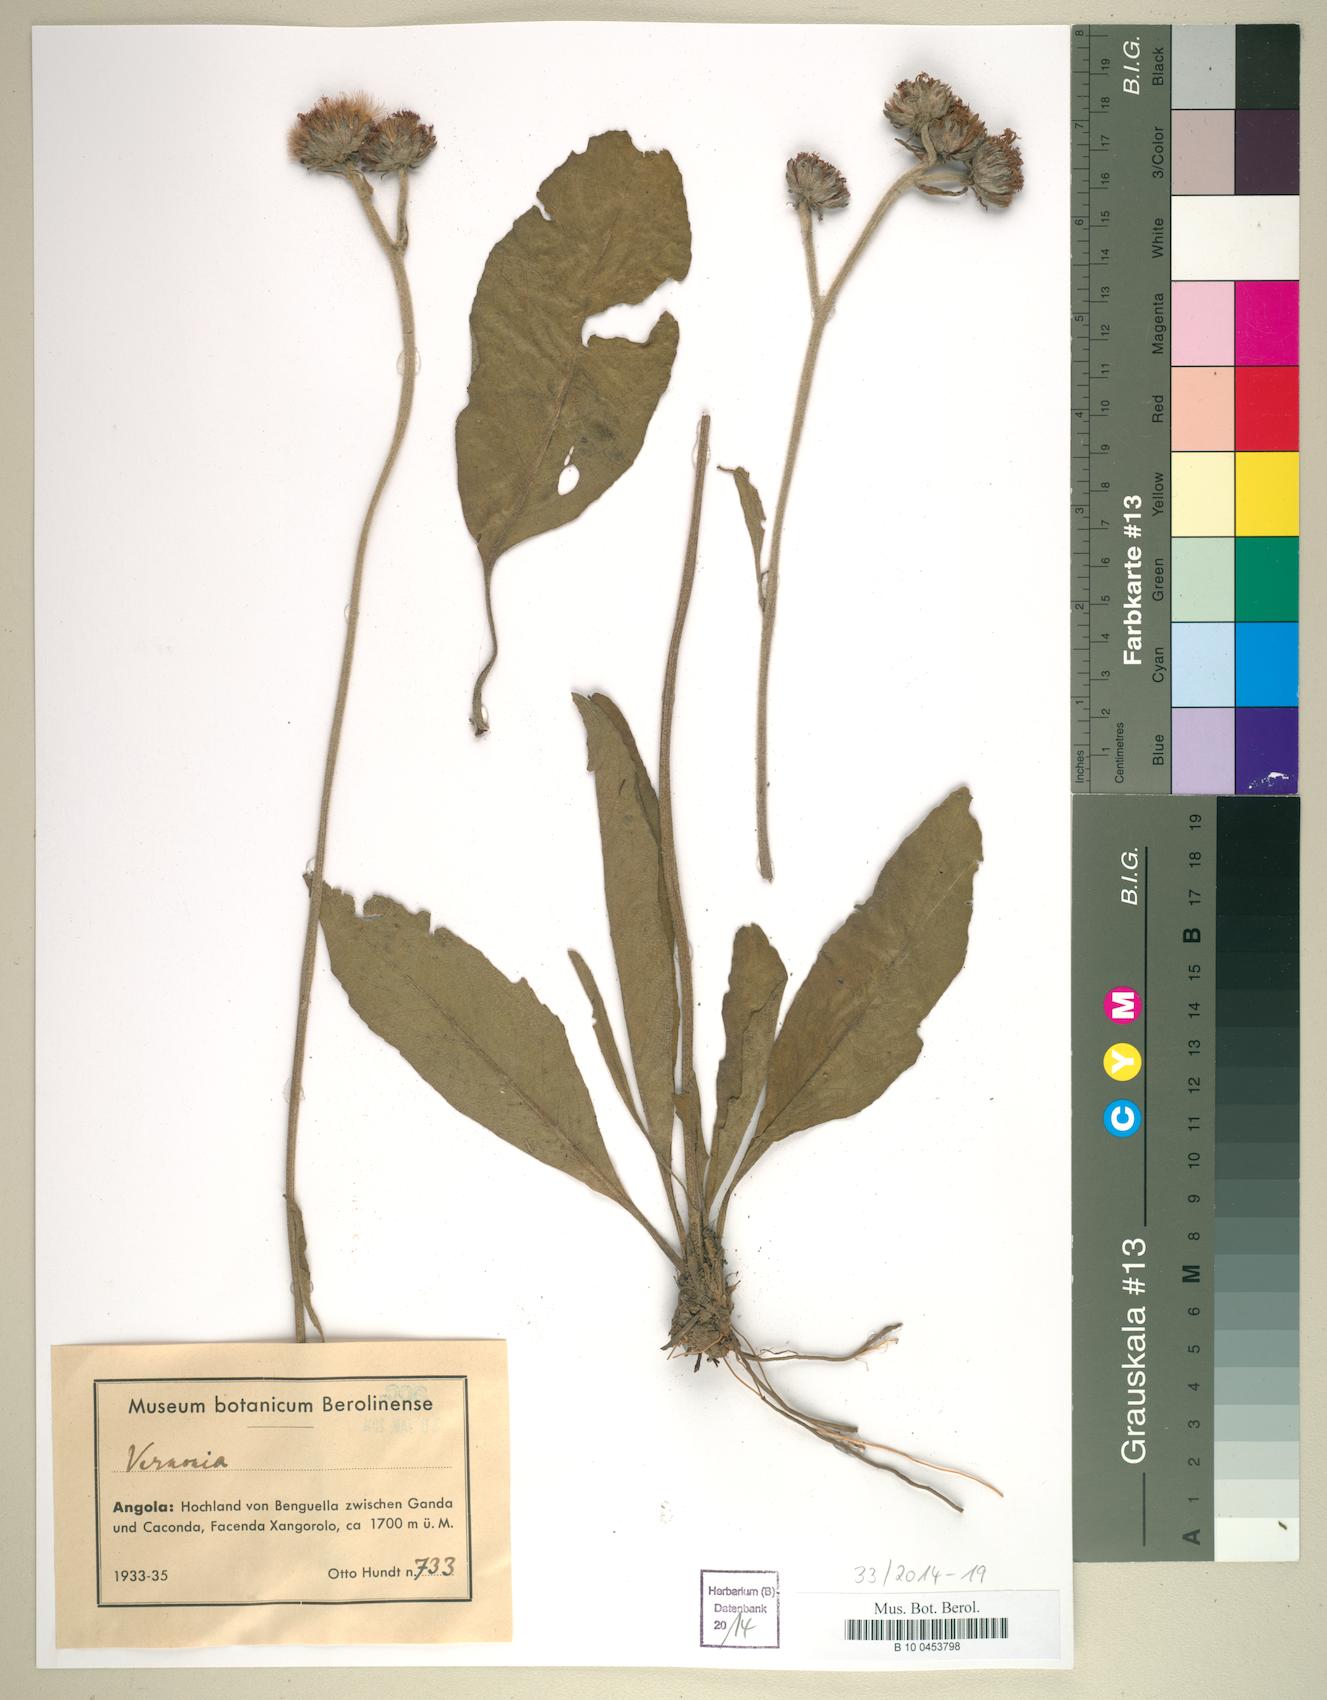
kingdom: Plantae
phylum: Tracheophyta
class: Magnoliopsida
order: Asterales
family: Asteraceae
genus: Vernonia
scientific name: Vernonia
